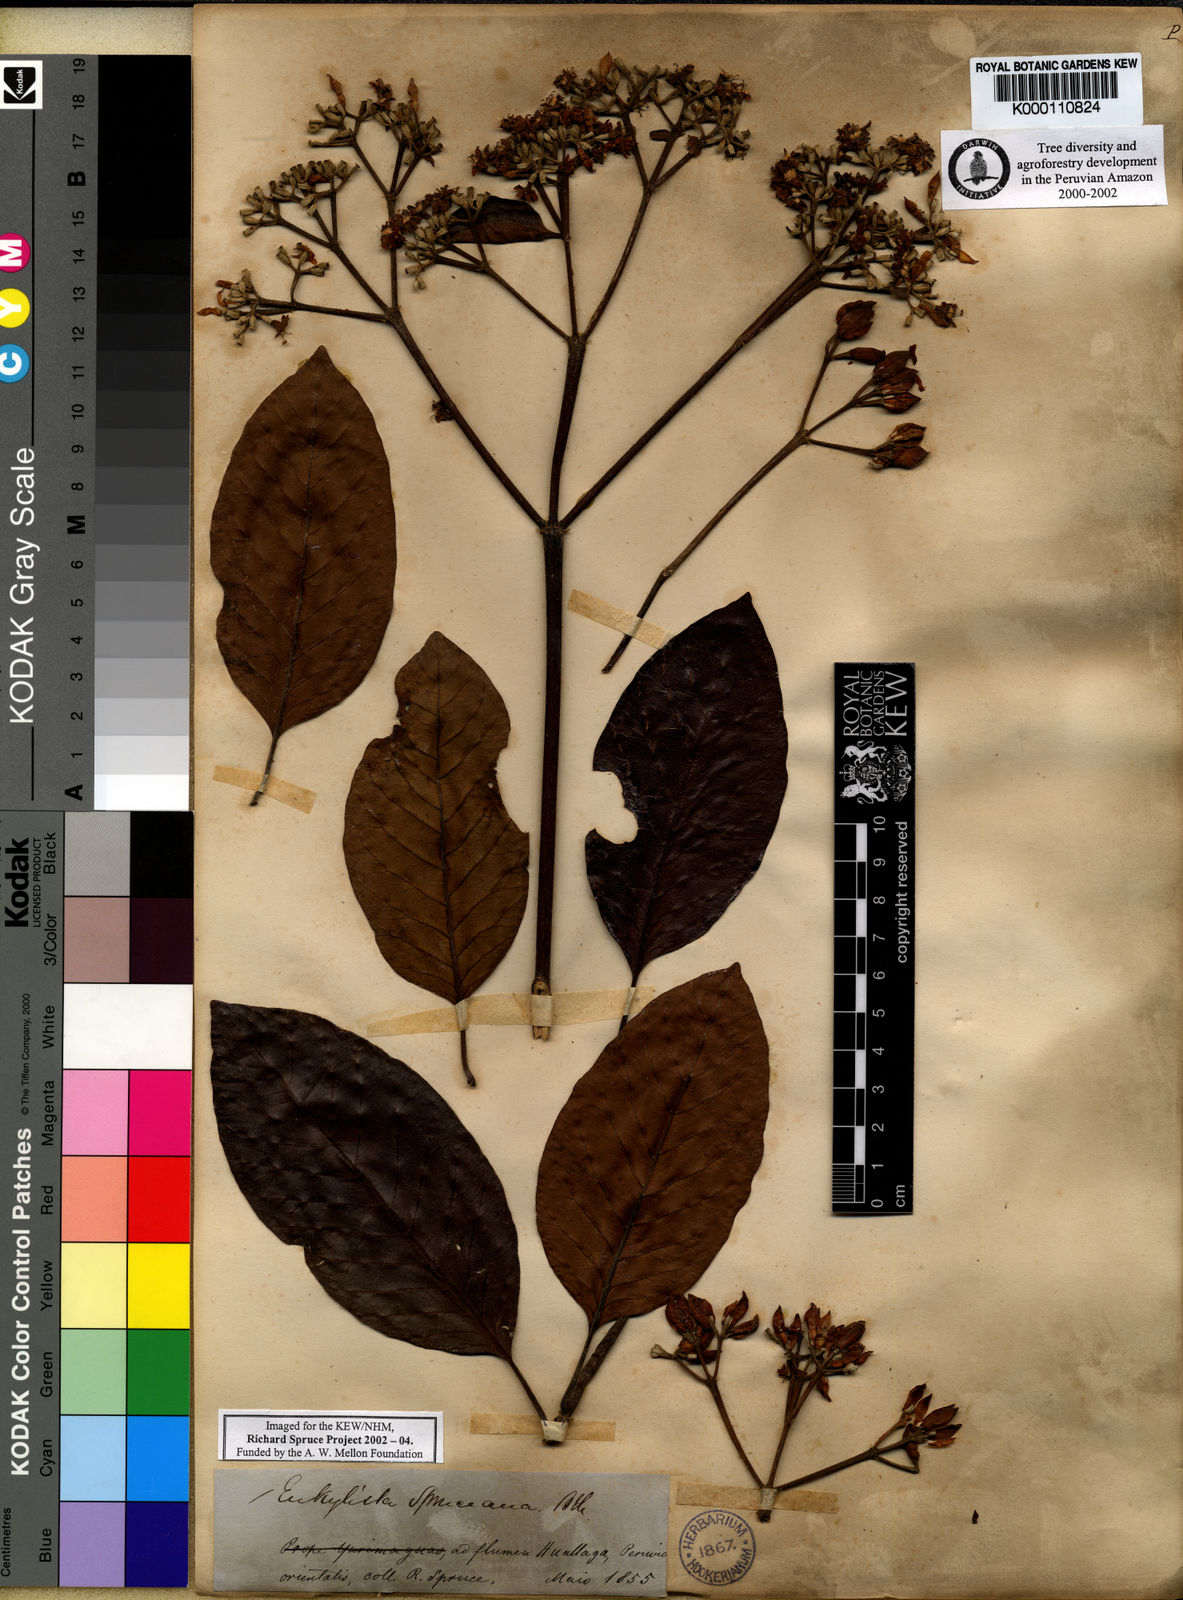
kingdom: Plantae
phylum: Tracheophyta
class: Magnoliopsida
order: Gentianales
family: Rubiaceae
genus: Calycophyllum
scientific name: Calycophyllum spruceanum
